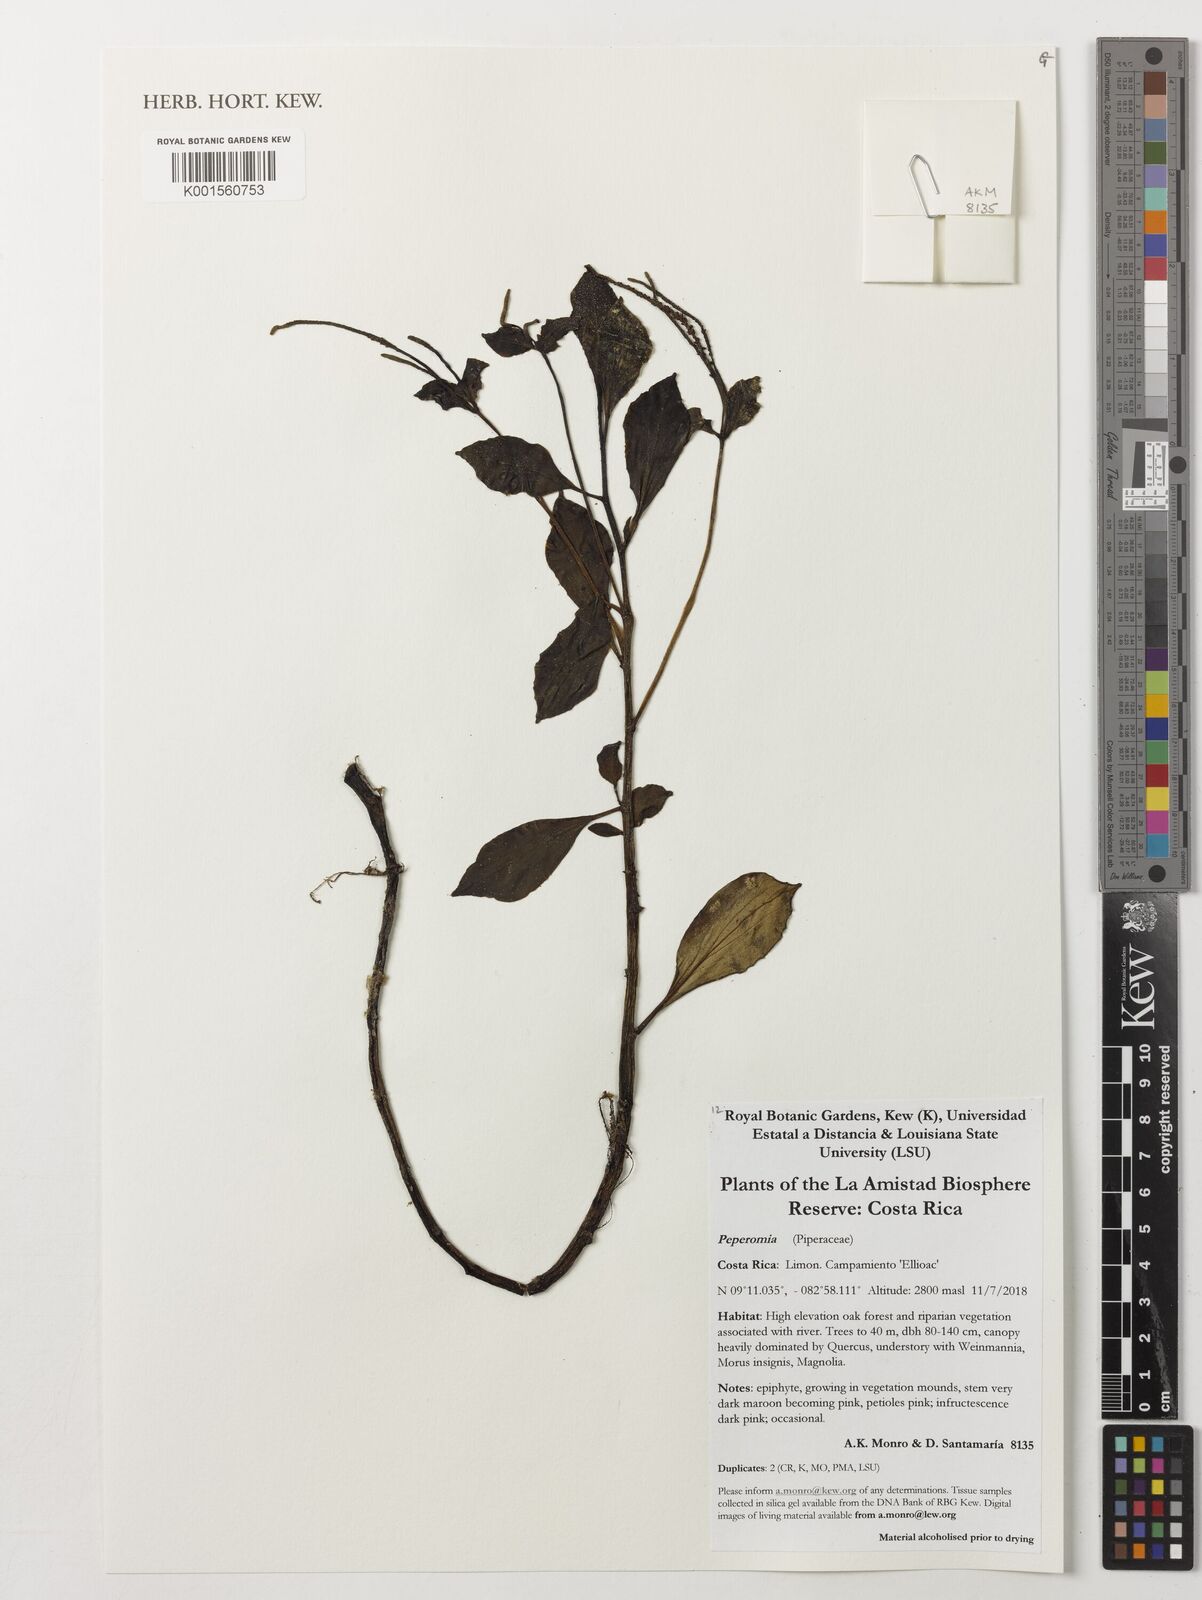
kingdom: Plantae
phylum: Tracheophyta
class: Magnoliopsida
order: Piperales
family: Piperaceae
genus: Peperomia
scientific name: Peperomia
